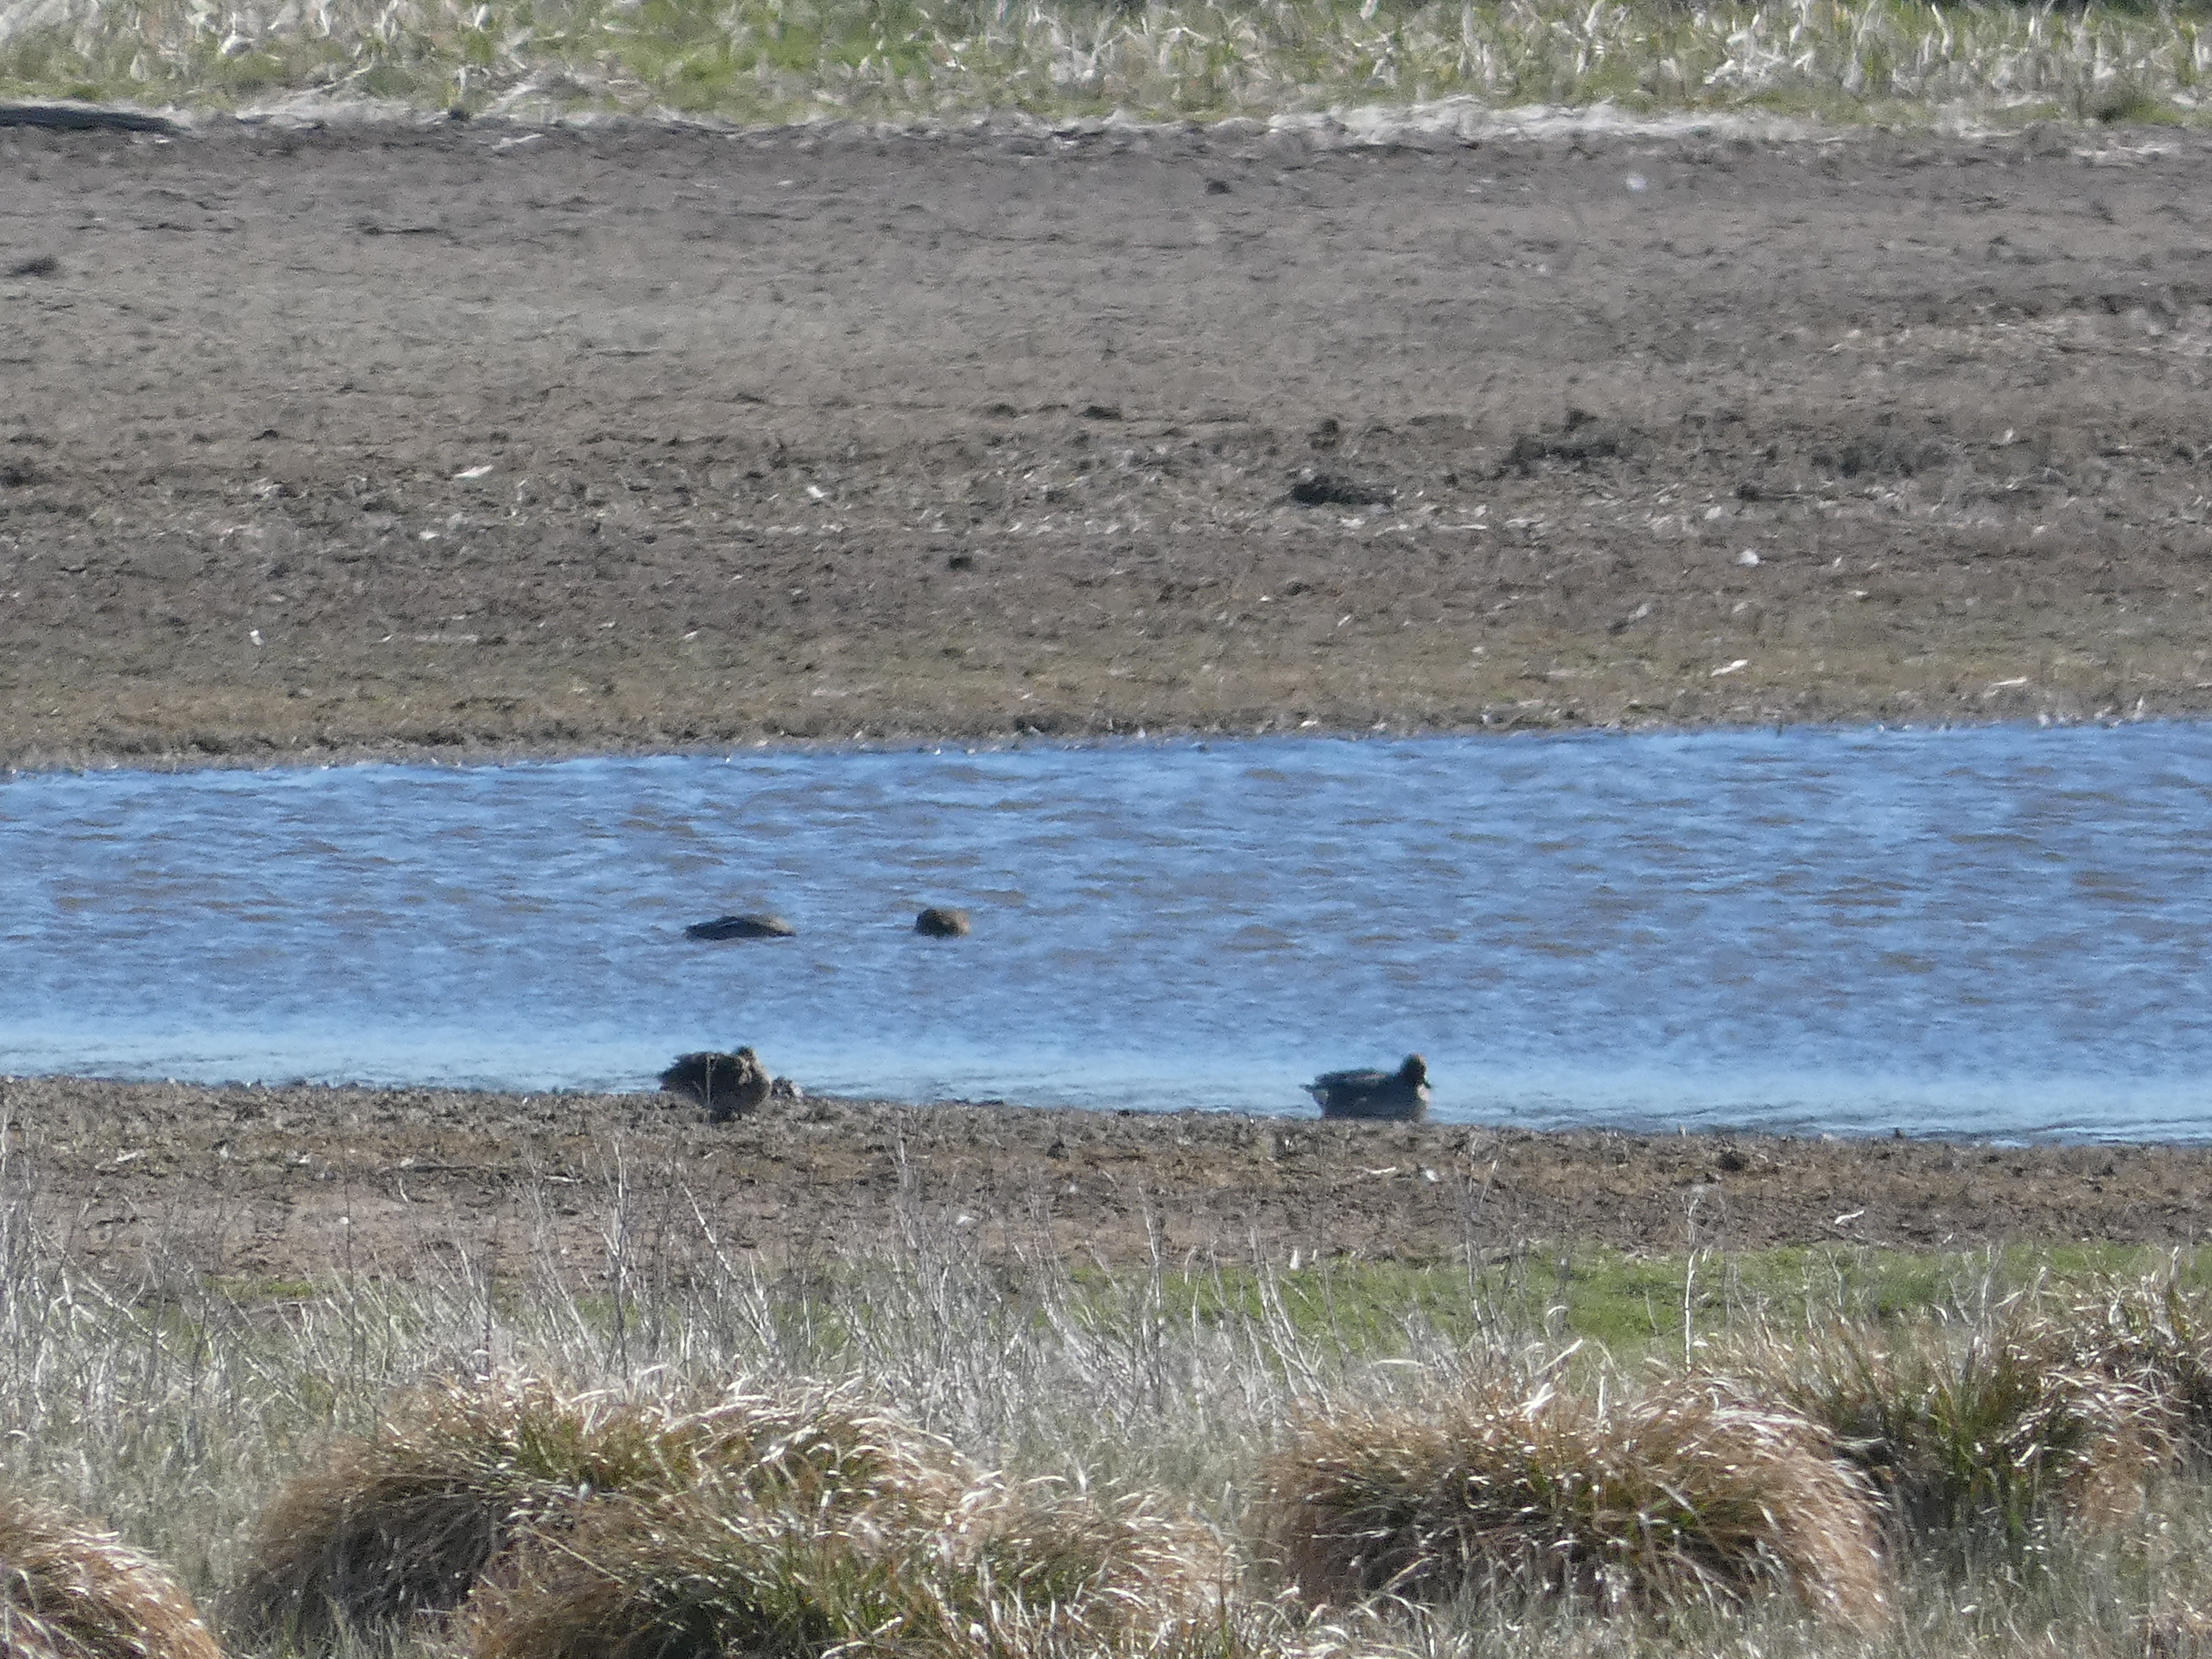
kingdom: Animalia
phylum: Chordata
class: Aves
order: Anseriformes
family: Anatidae
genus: Anas
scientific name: Anas crecca
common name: Krikand
